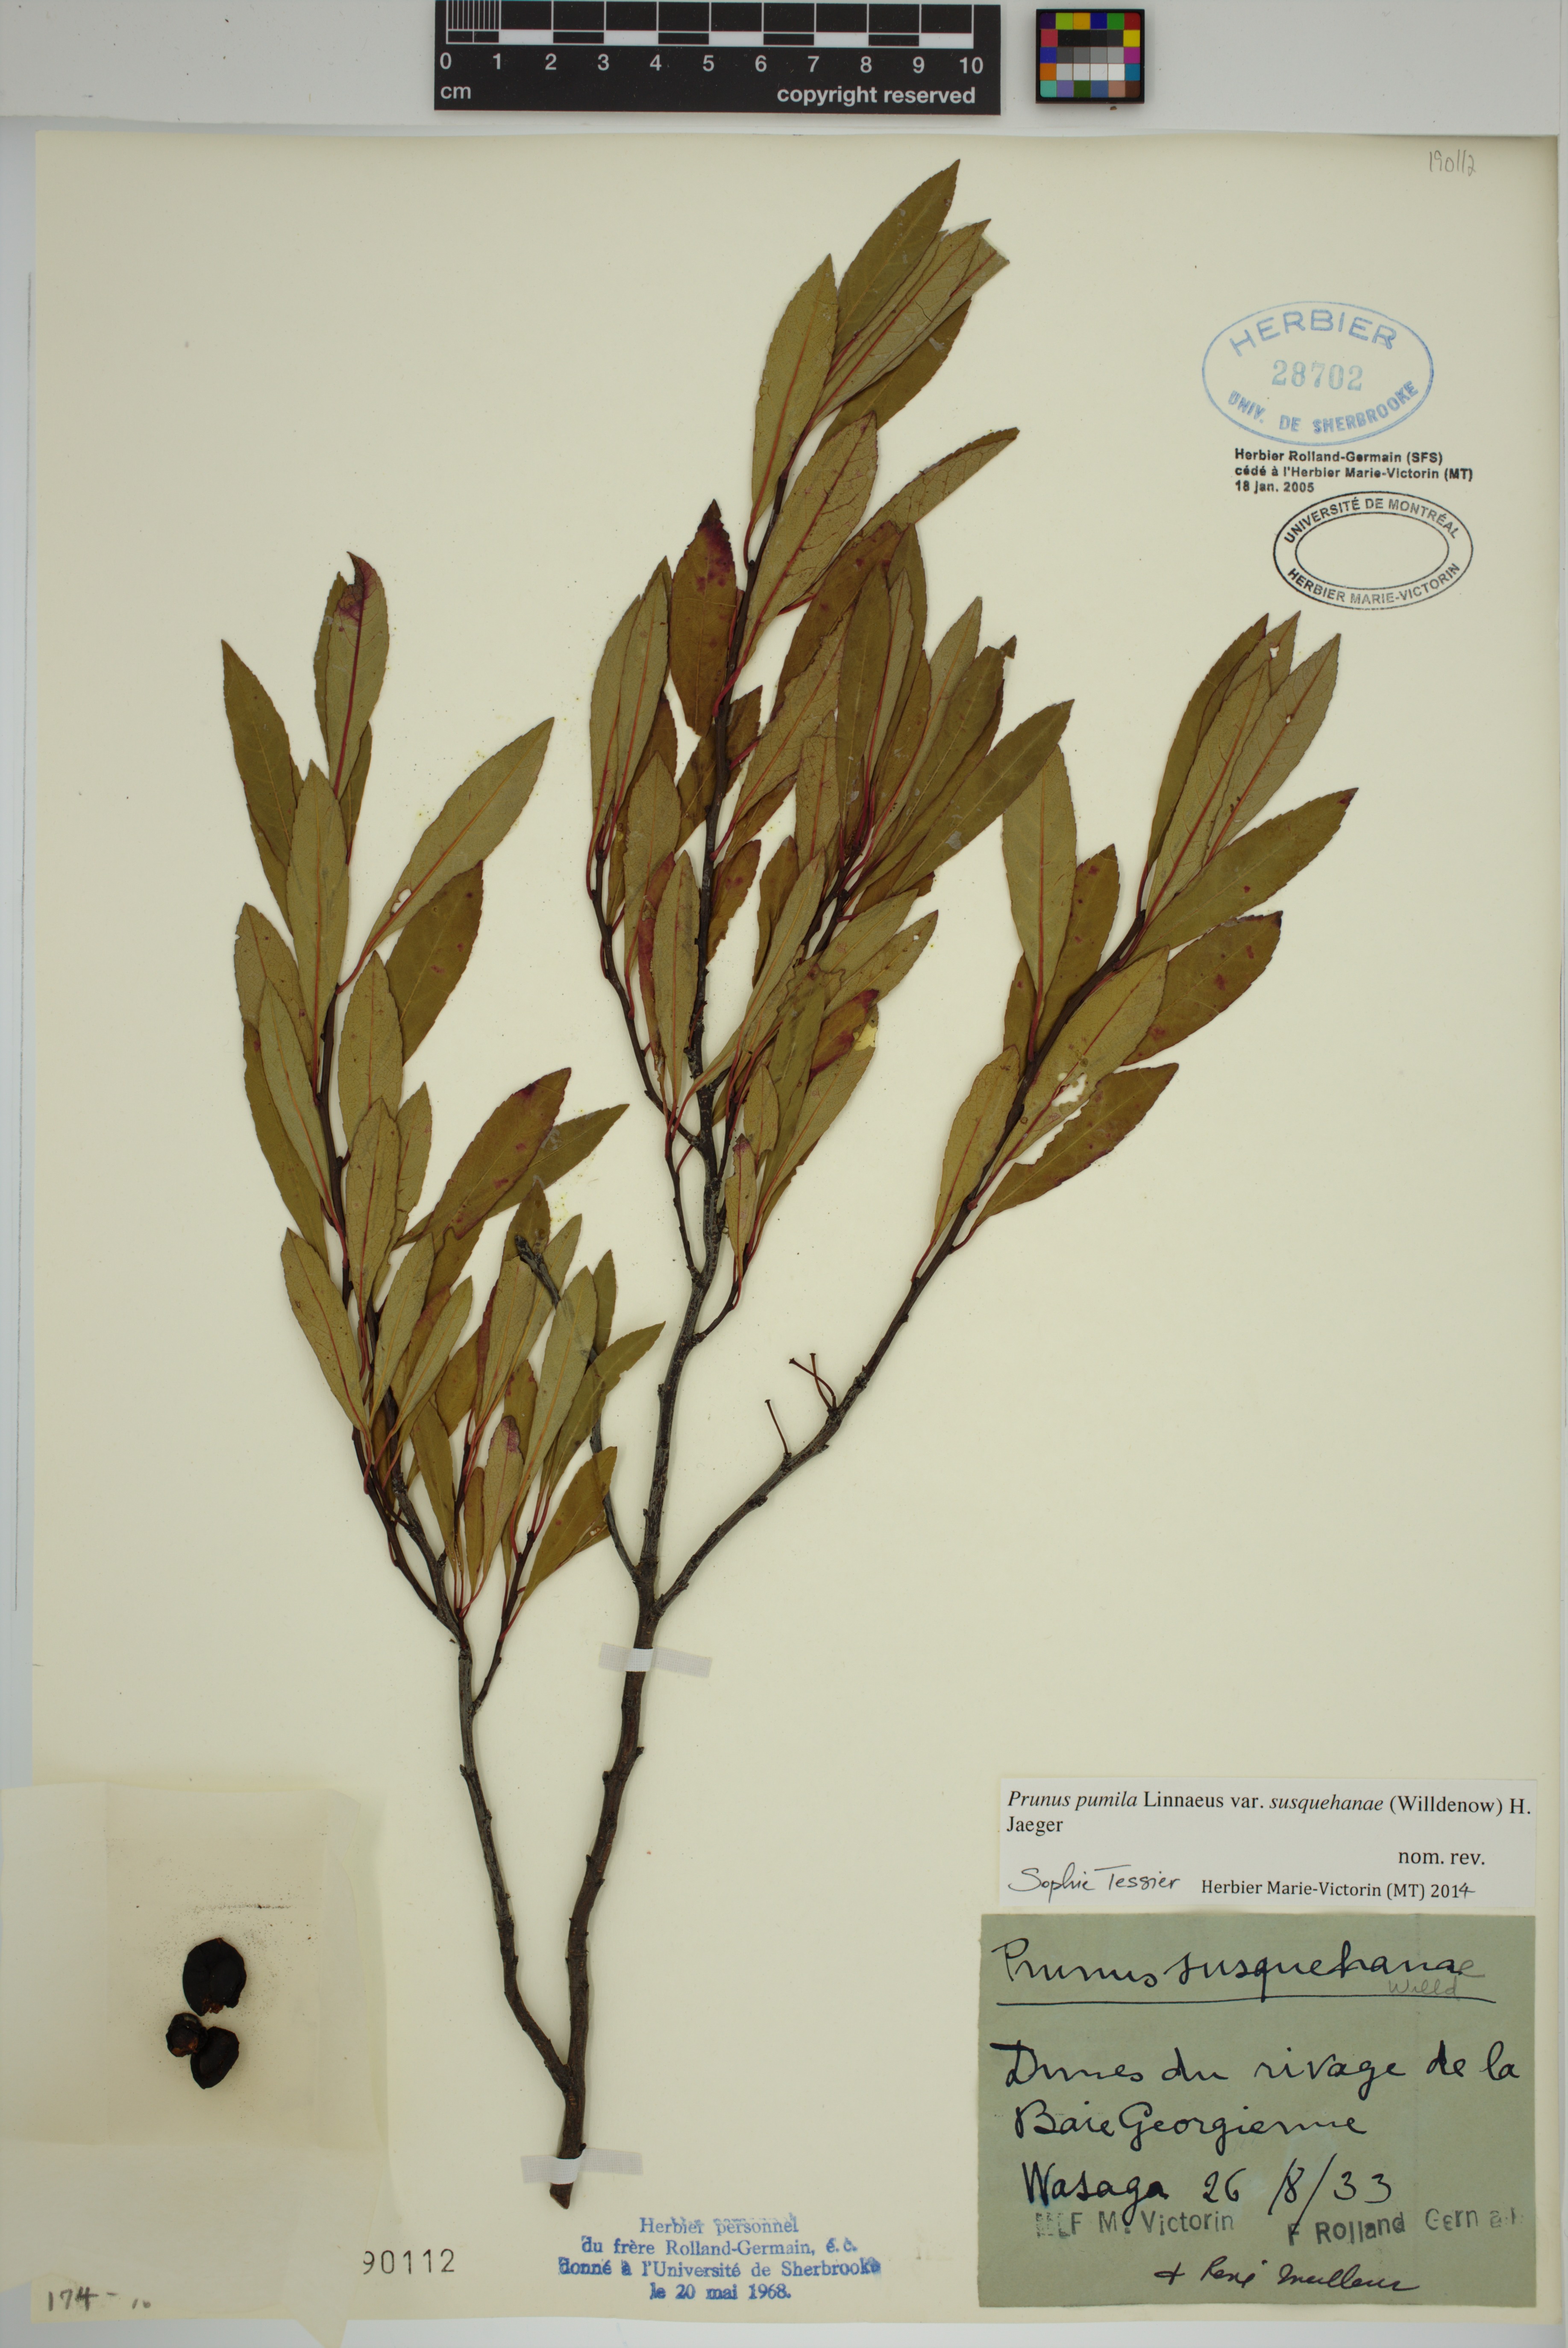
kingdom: Plantae
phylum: Tracheophyta
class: Magnoliopsida
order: Rosales
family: Rosaceae
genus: Prunus
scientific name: Prunus susquehanae
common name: Sesquehana sandcherry
